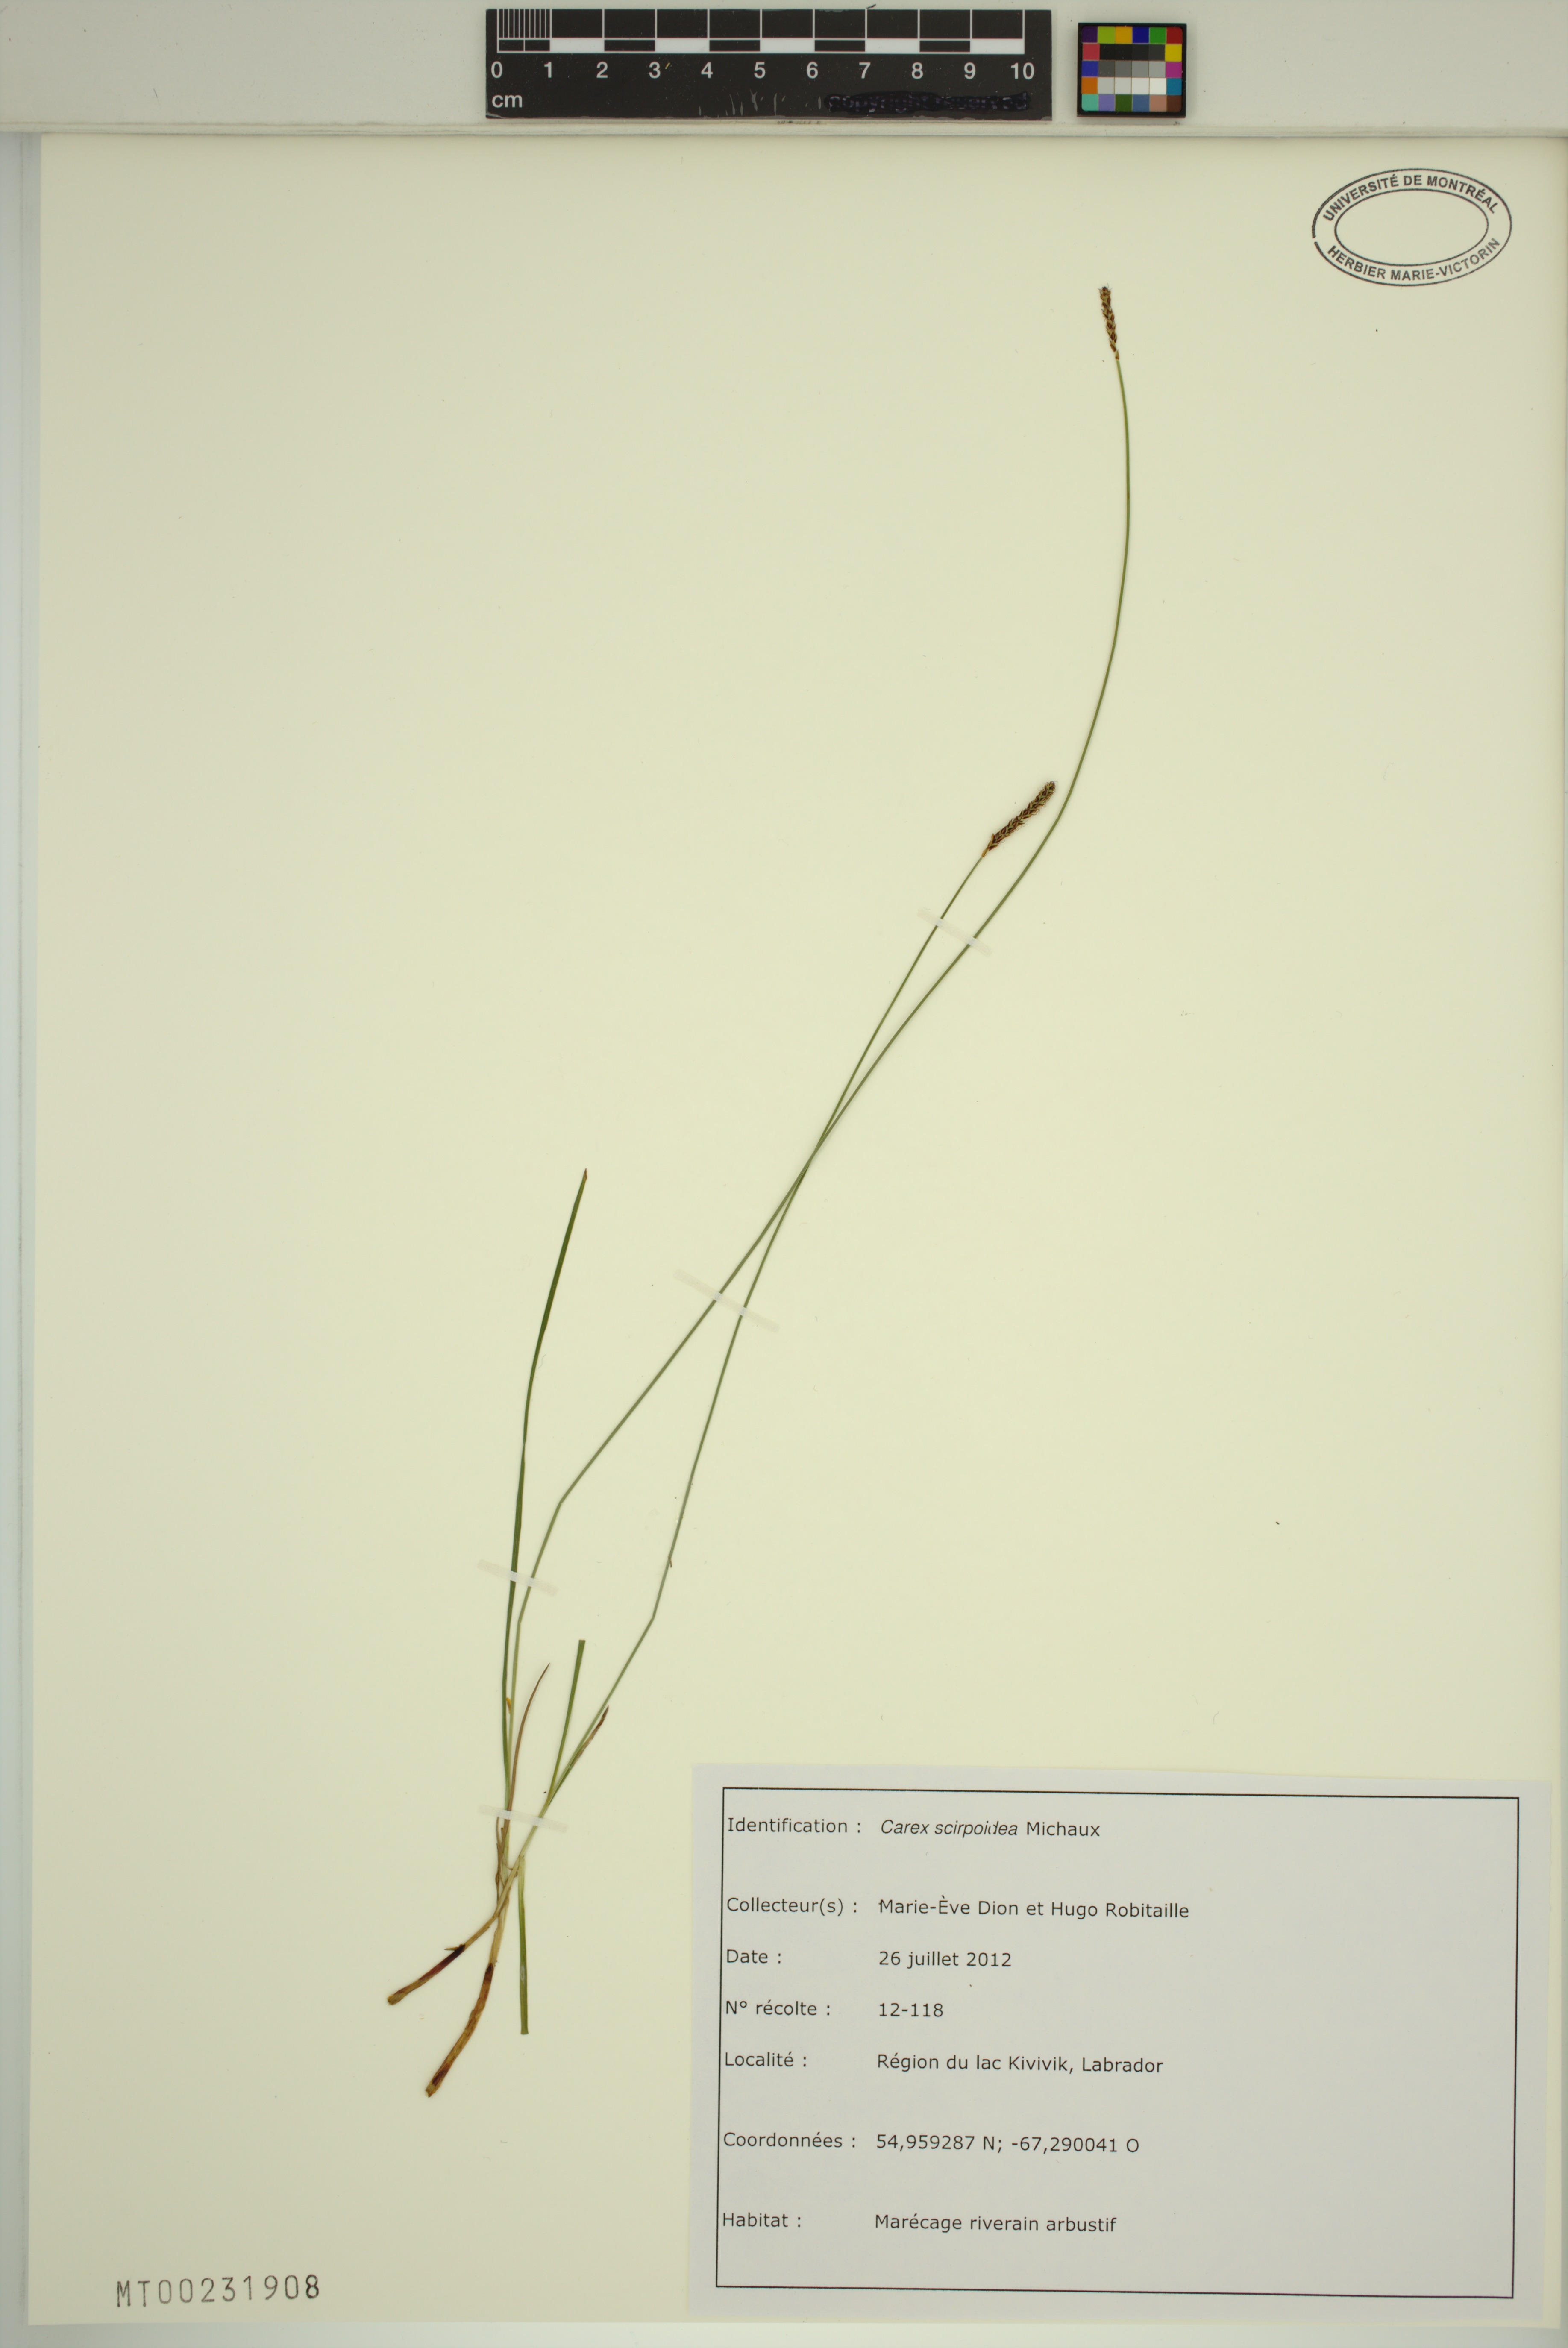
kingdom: Plantae
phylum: Tracheophyta
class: Liliopsida
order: Poales
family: Cyperaceae
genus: Carex
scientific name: Carex scirpoidea
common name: Canada single-spike sedge
